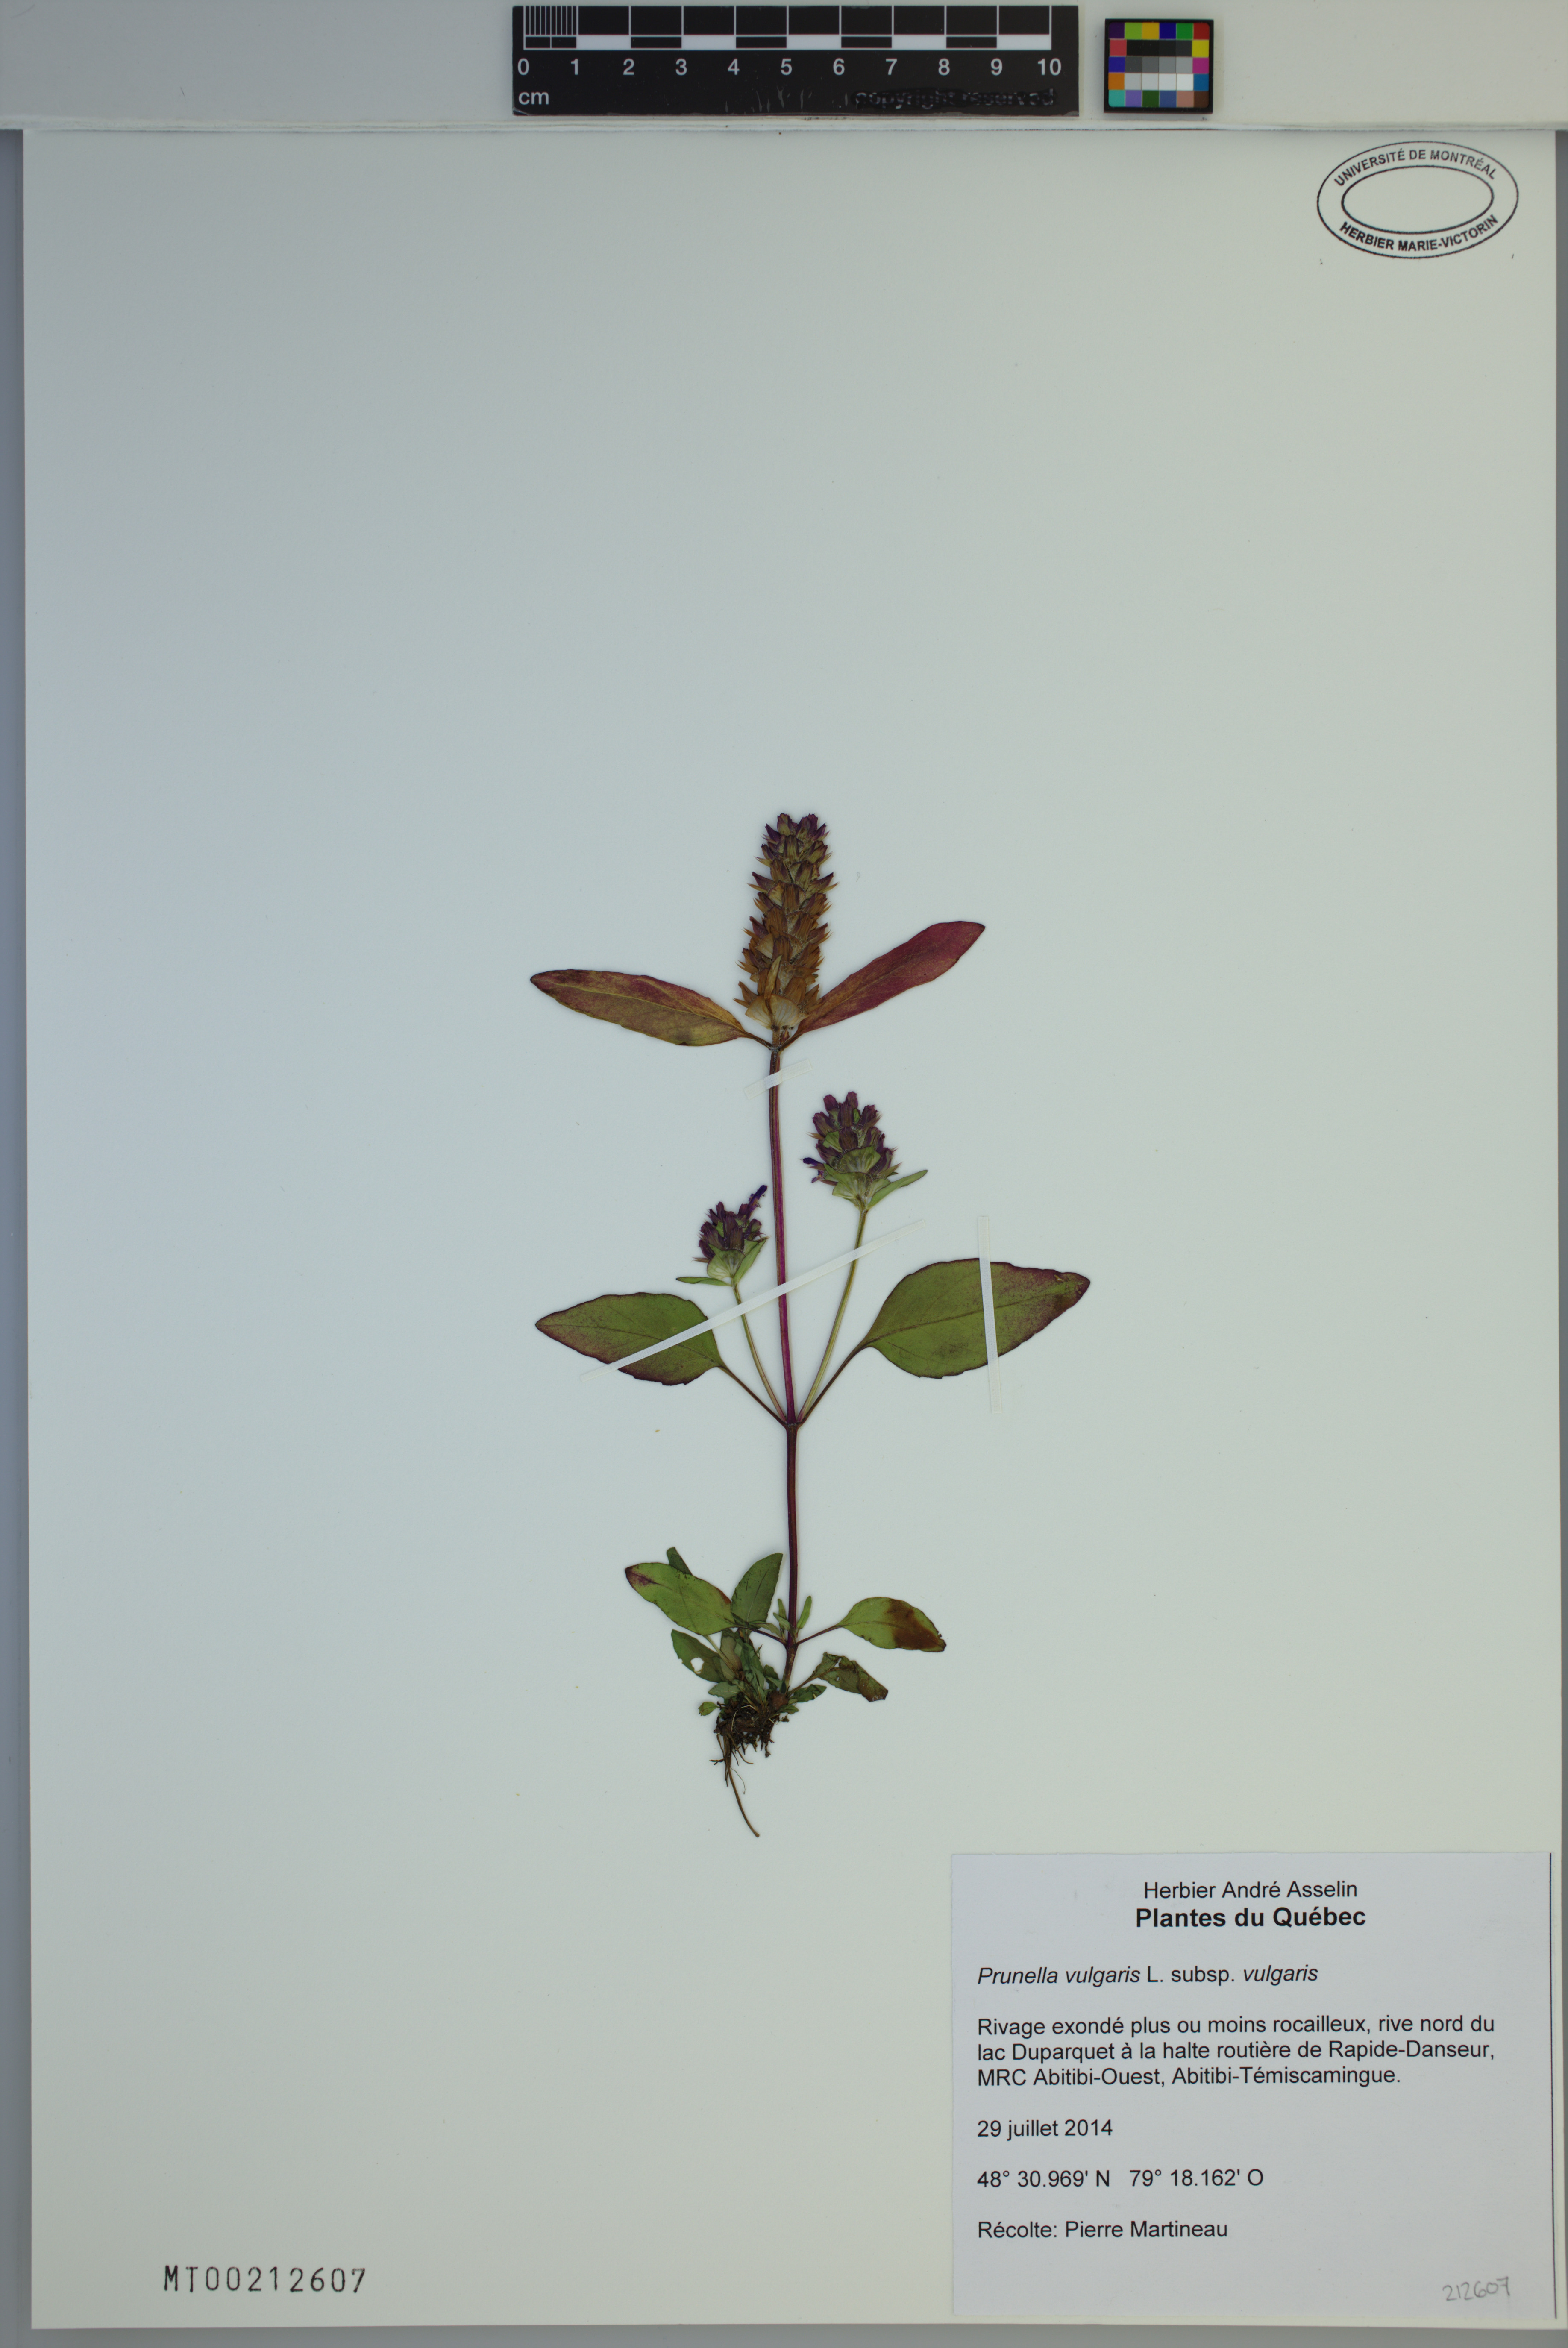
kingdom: Plantae
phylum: Tracheophyta
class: Magnoliopsida
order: Lamiales
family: Lamiaceae
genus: Prunella
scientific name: Prunella vulgaris
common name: Heal-all
